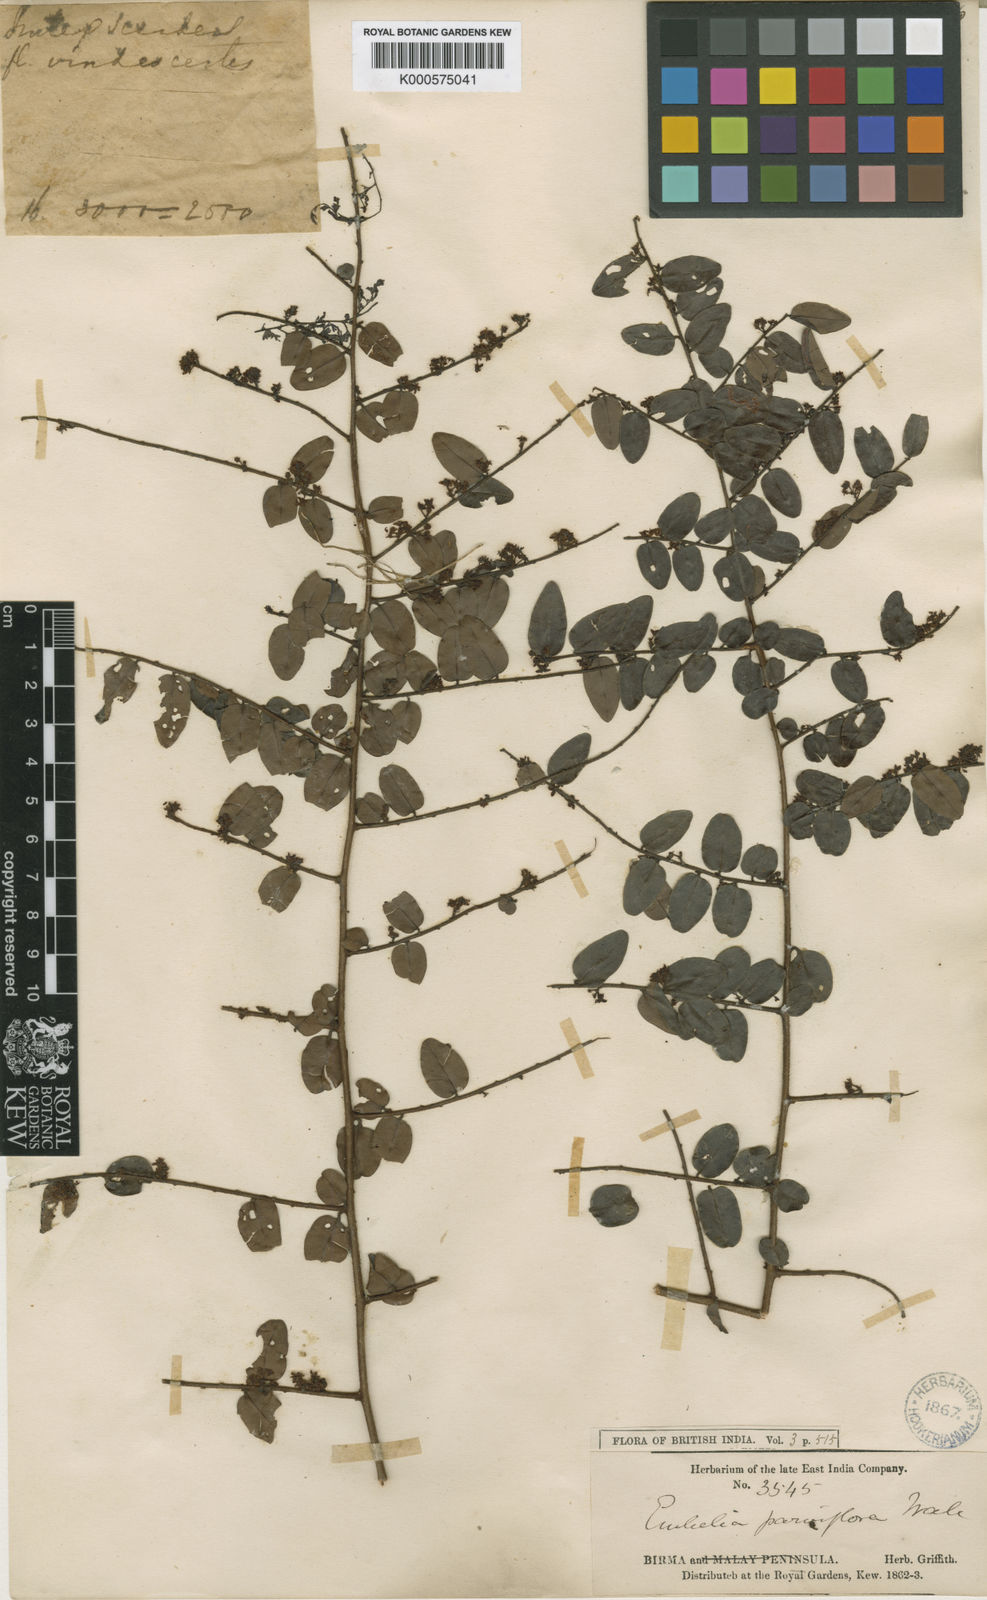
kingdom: Plantae
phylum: Tracheophyta
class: Magnoliopsida
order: Ericales
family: Primulaceae
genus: Embelia
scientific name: Embelia
